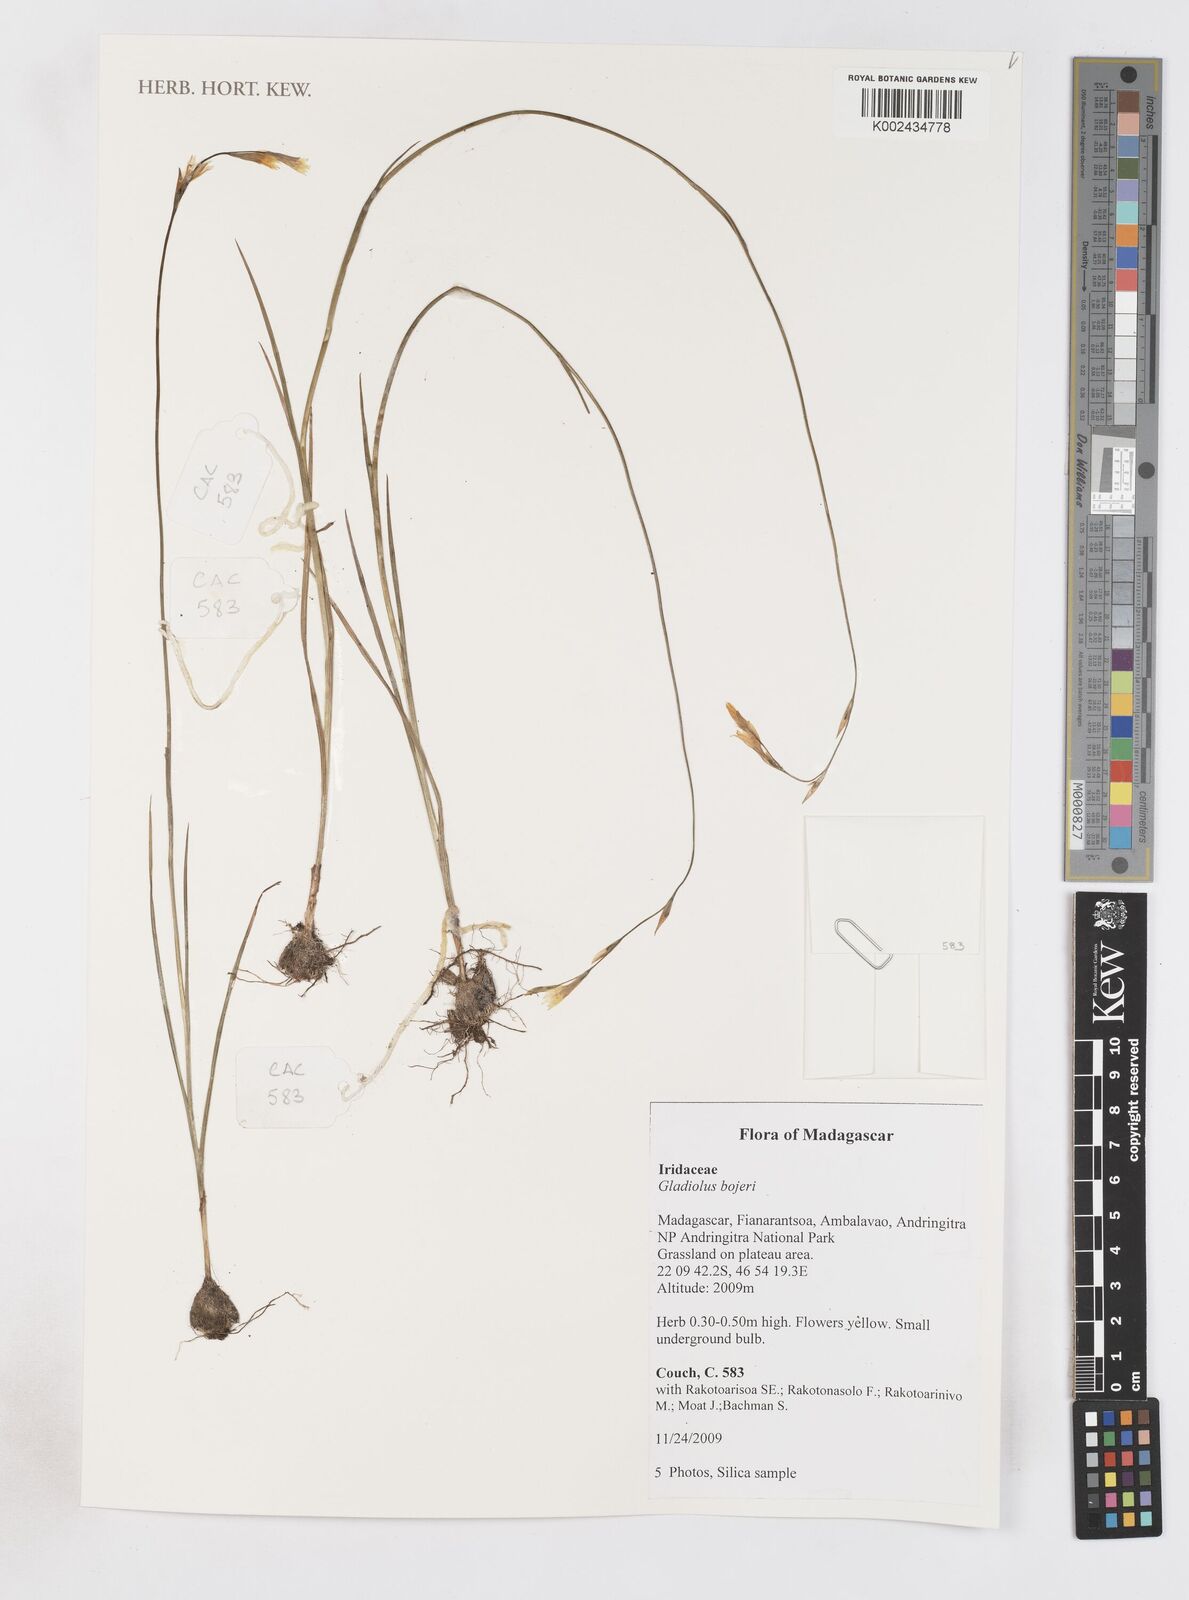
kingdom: Plantae
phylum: Tracheophyta
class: Liliopsida
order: Asparagales
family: Iridaceae
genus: Gladiolus
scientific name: Gladiolus bojeri
